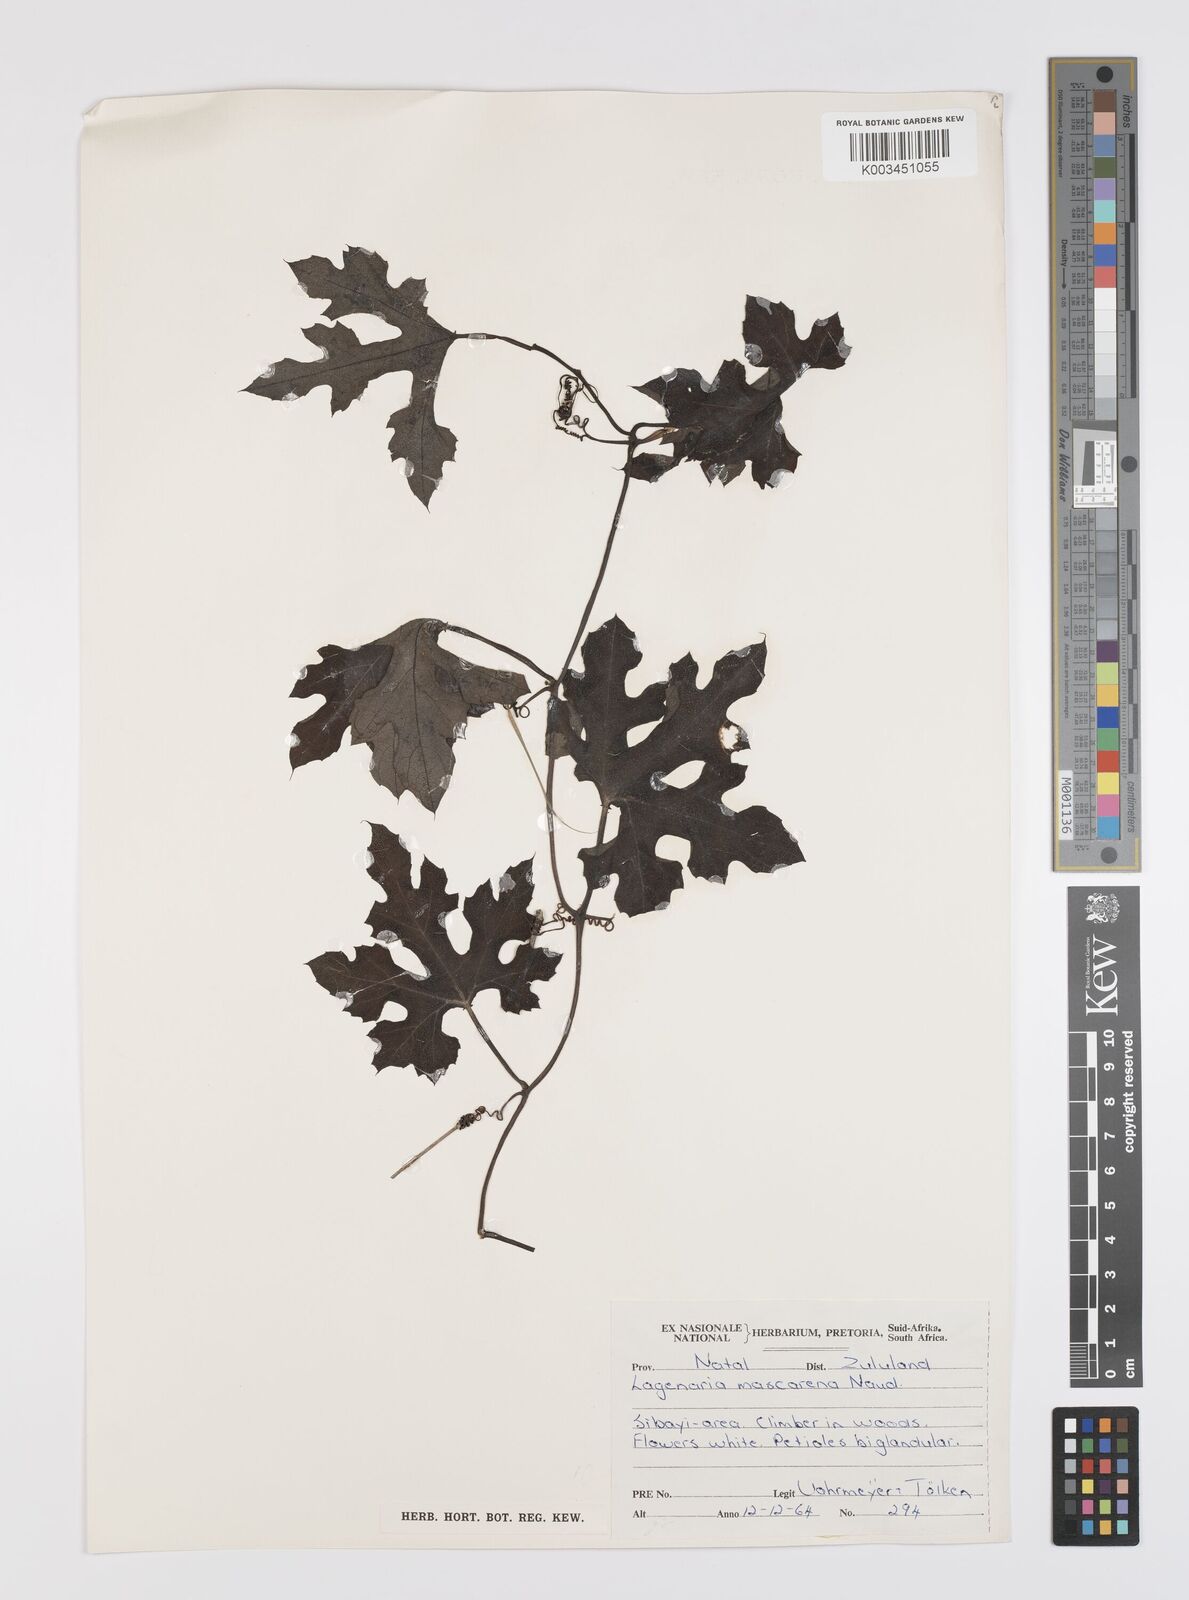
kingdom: Plantae
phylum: Tracheophyta
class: Magnoliopsida
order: Cucurbitales
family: Cucurbitaceae
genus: Lagenaria
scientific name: Lagenaria sphaerica
